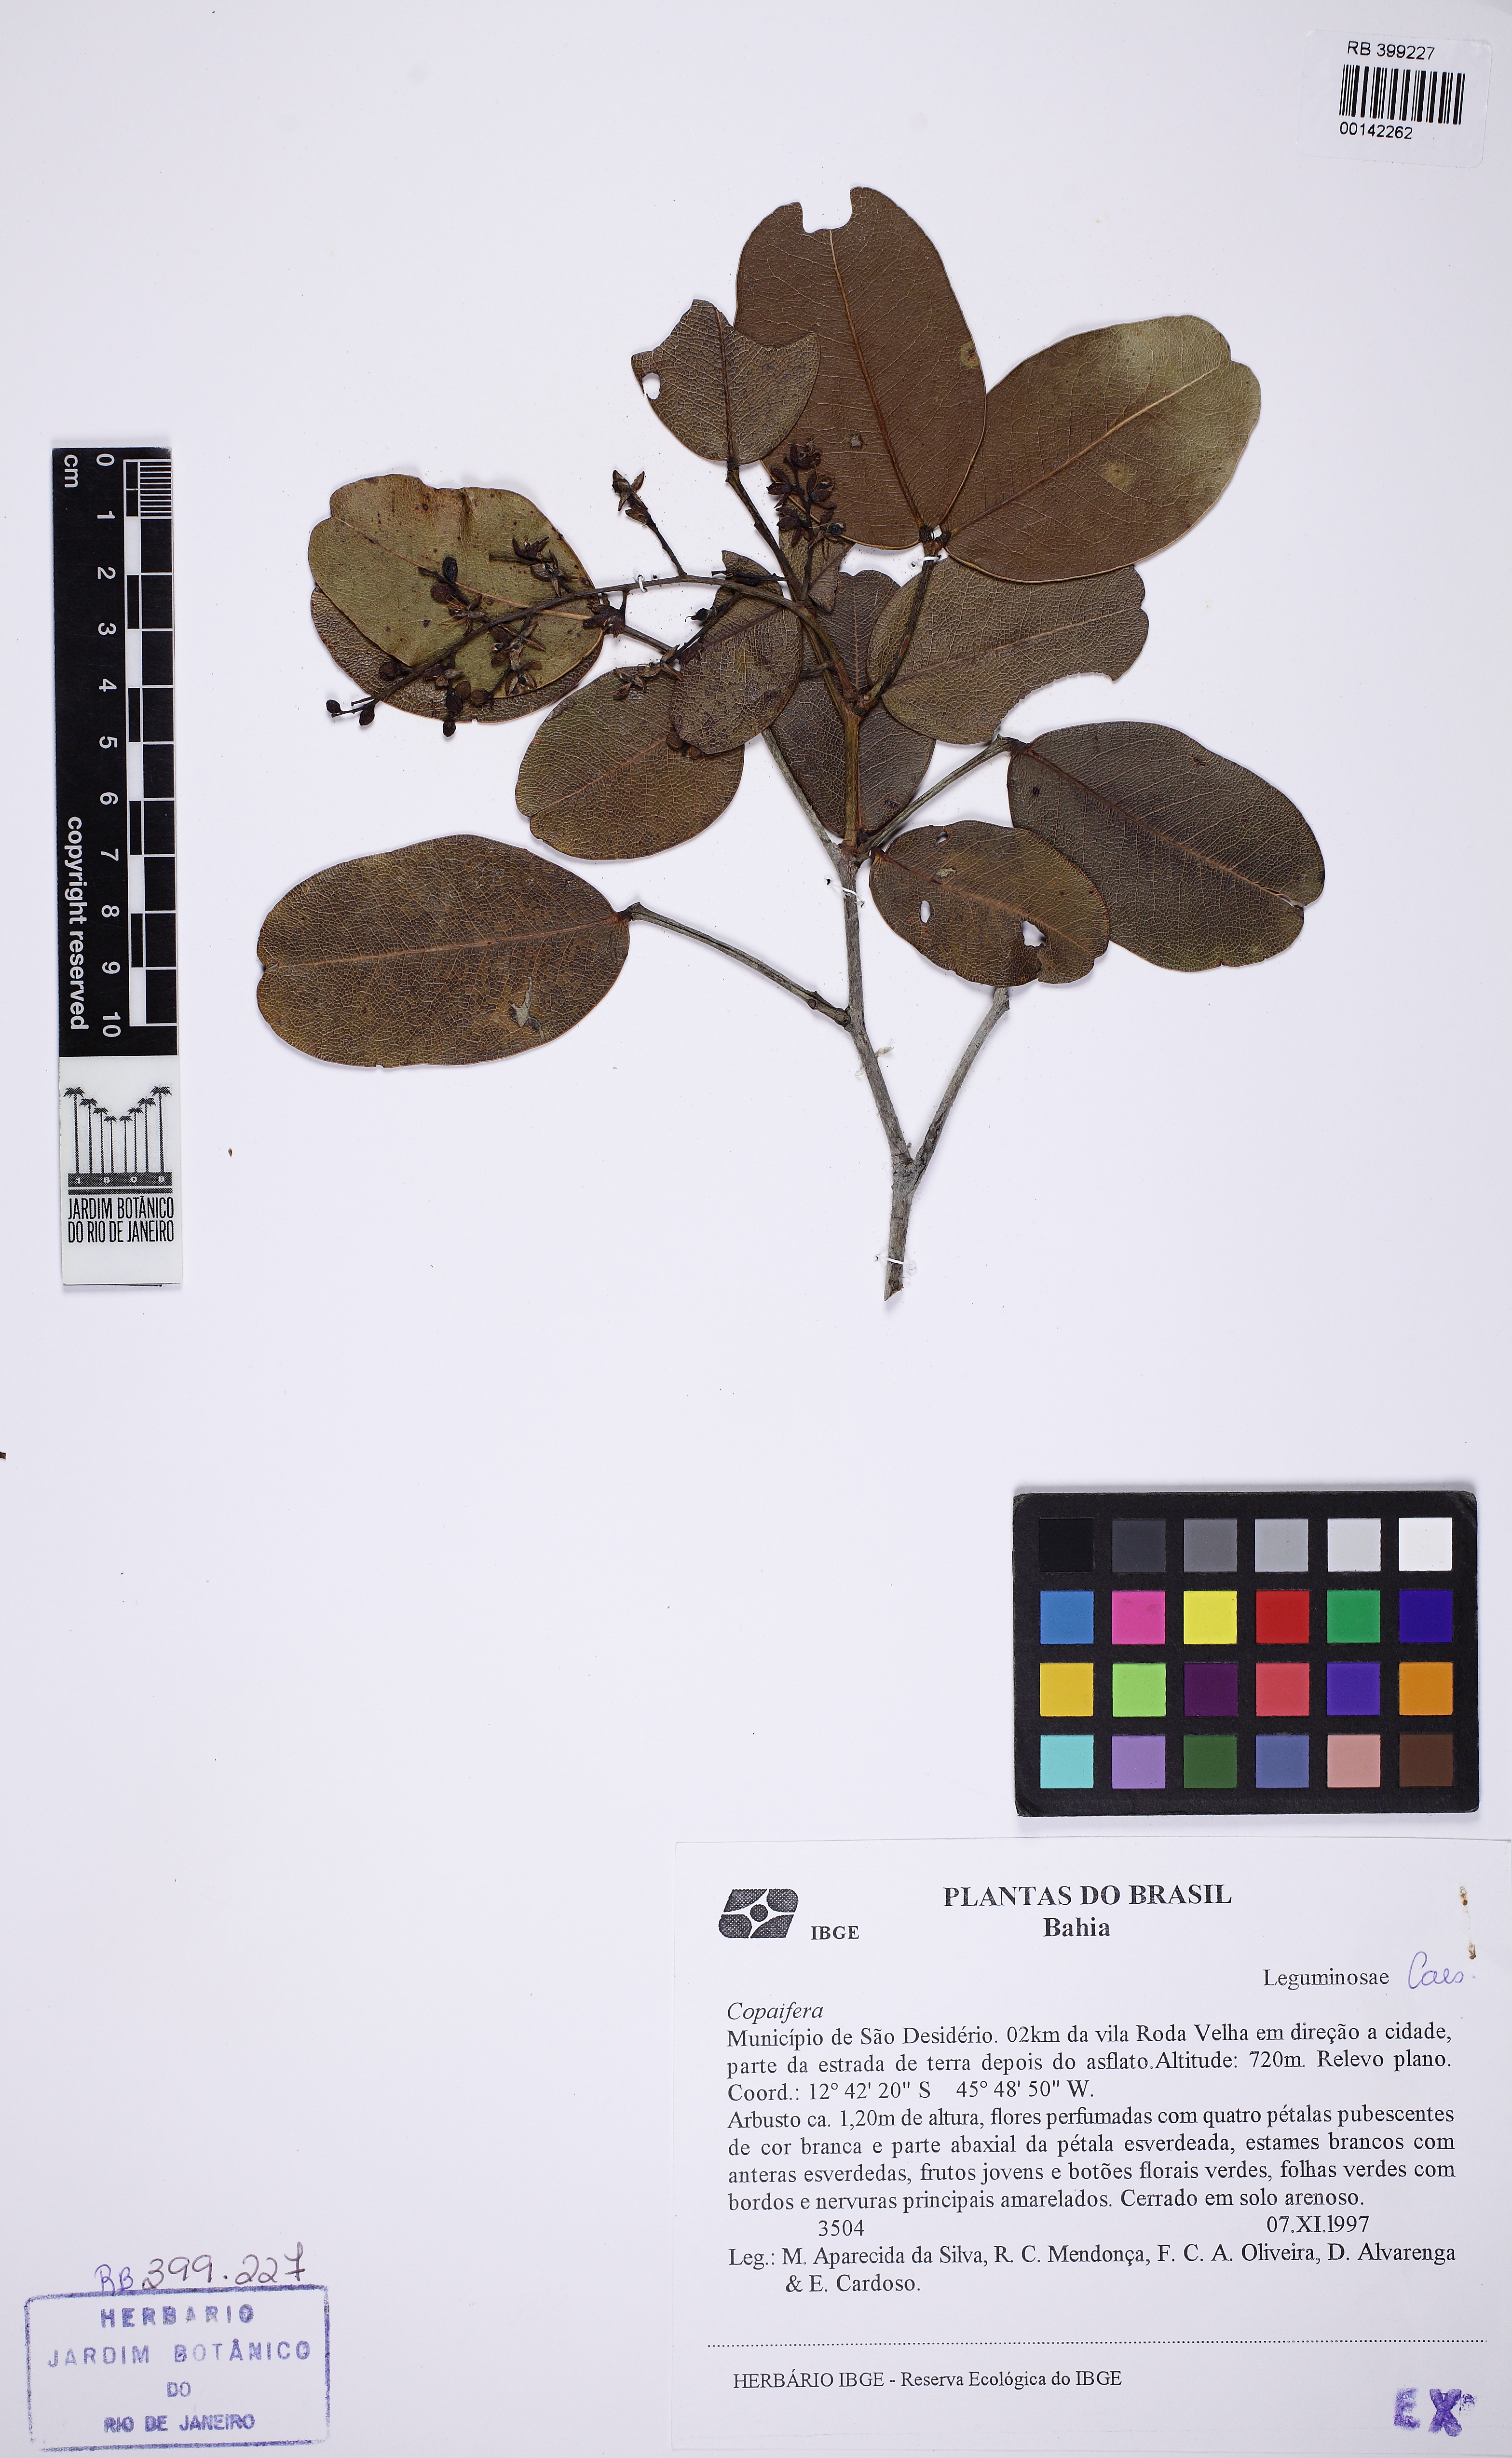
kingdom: Plantae
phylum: Tracheophyta
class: Magnoliopsida
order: Fabales
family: Fabaceae
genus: Copaifera
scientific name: Copaifera
